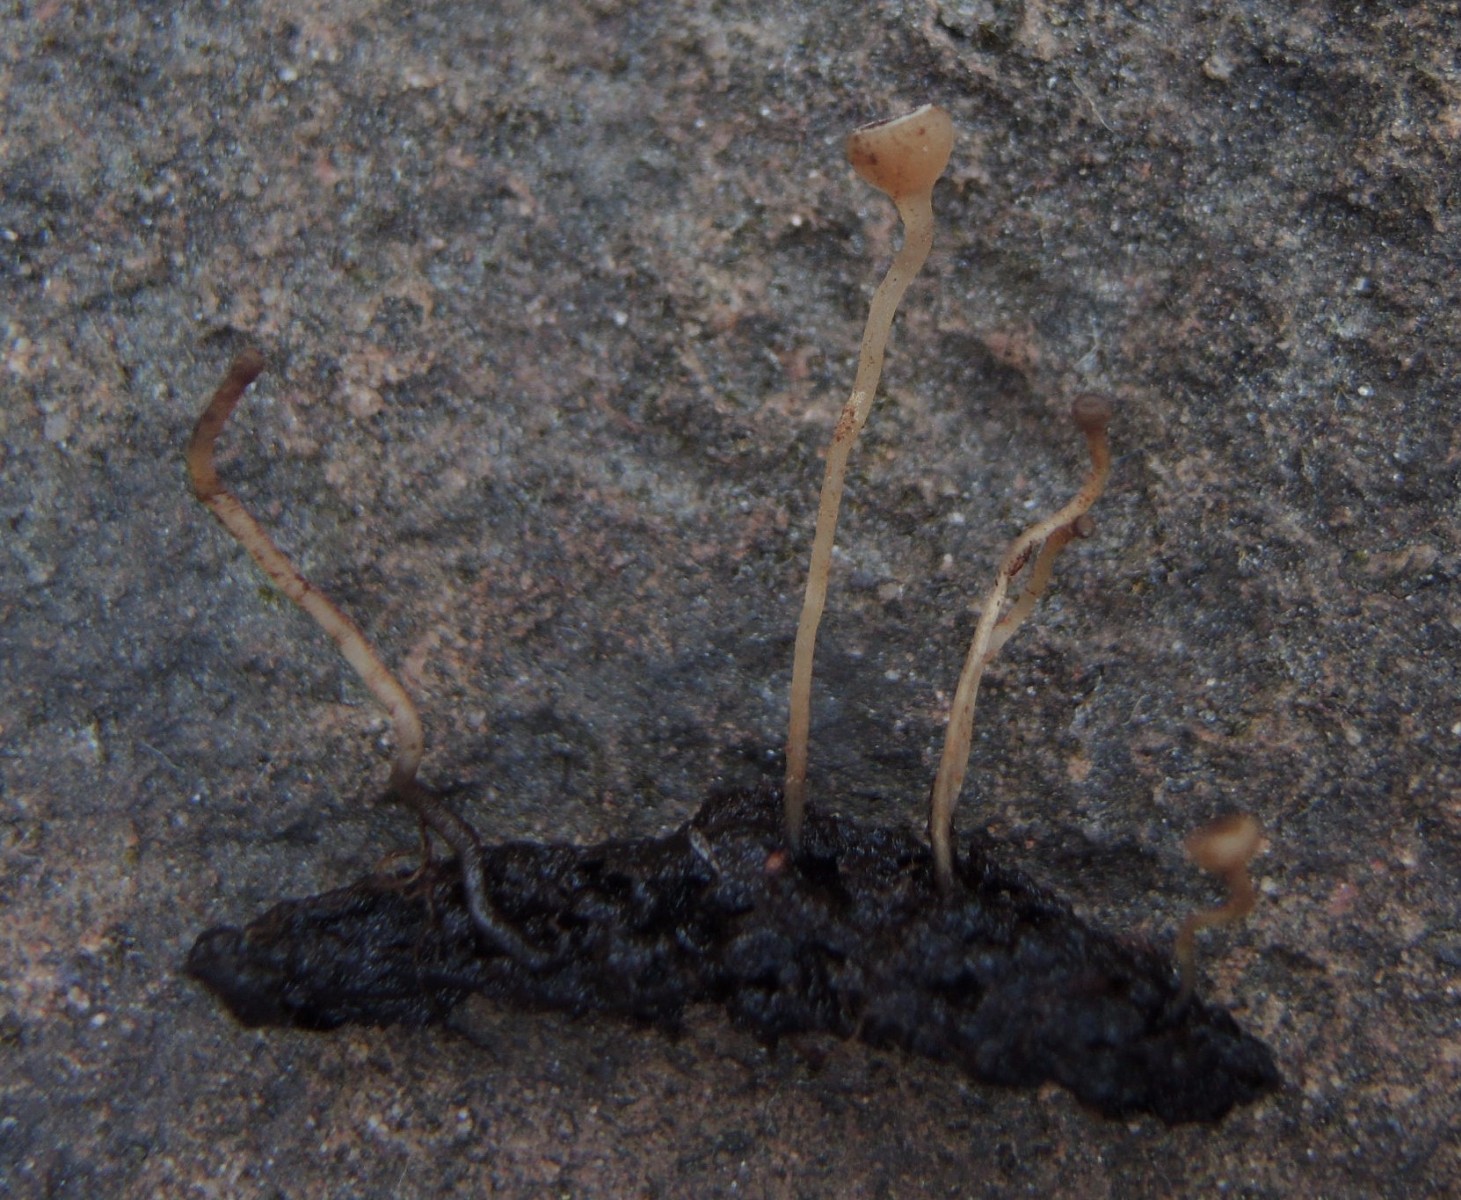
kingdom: Fungi
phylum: Ascomycota
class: Leotiomycetes
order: Helotiales
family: Sclerotiniaceae
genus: Ciboria
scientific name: Ciboria caucus
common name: rakle-knoldskive
